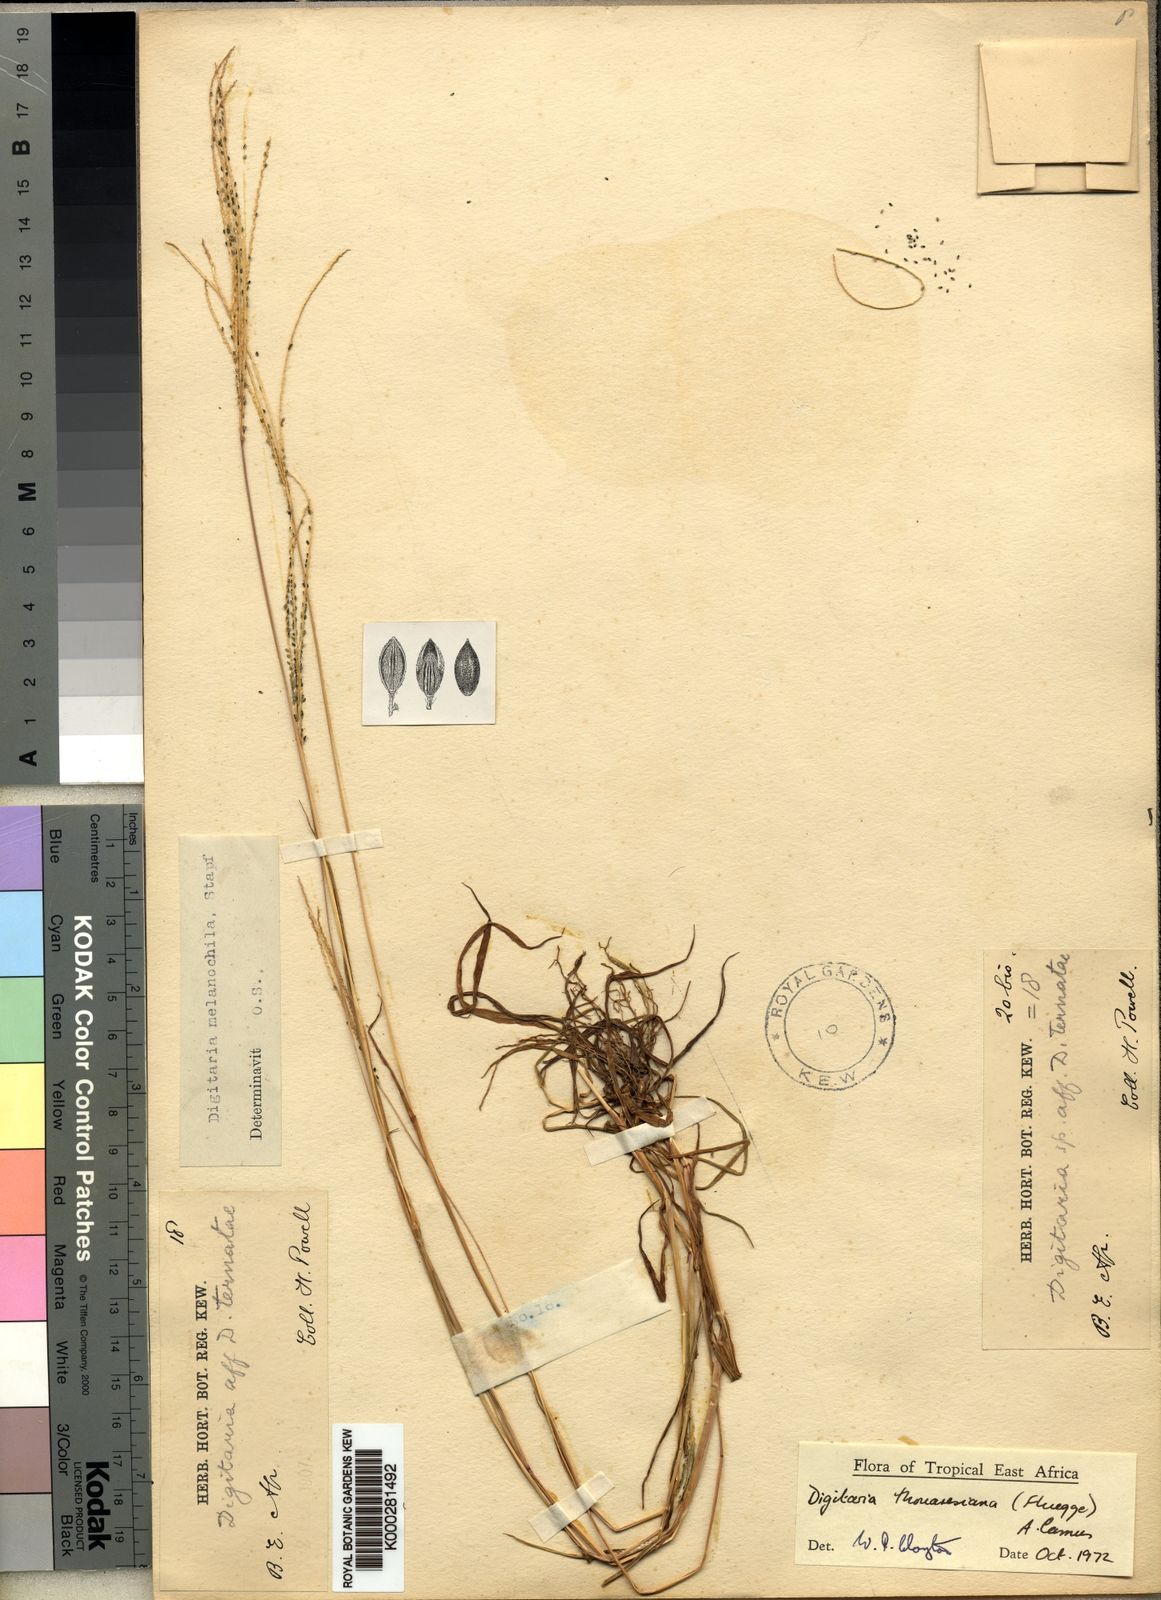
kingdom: Plantae
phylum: Tracheophyta
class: Liliopsida
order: Poales
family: Poaceae
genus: Digitaria
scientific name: Digitaria
